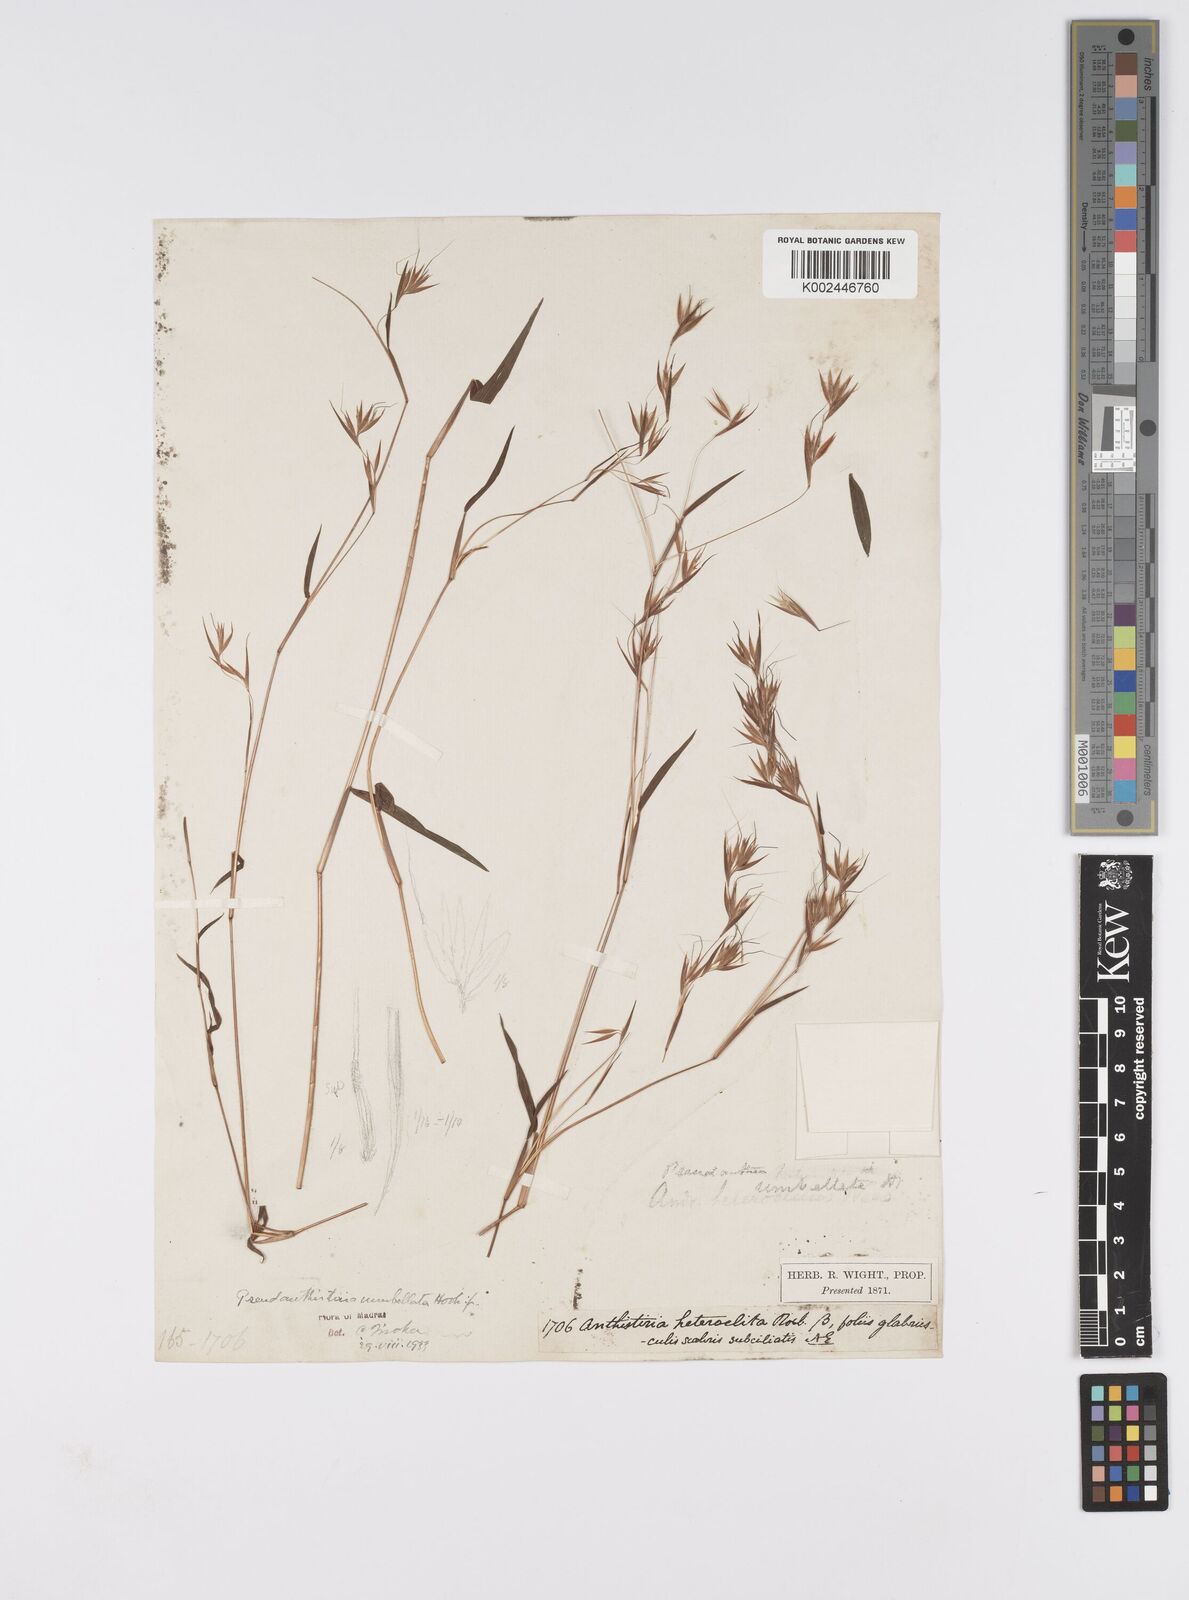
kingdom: Plantae
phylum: Tracheophyta
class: Liliopsida
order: Poales
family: Poaceae
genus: Pseudanthistiria
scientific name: Pseudanthistiria umbellata
